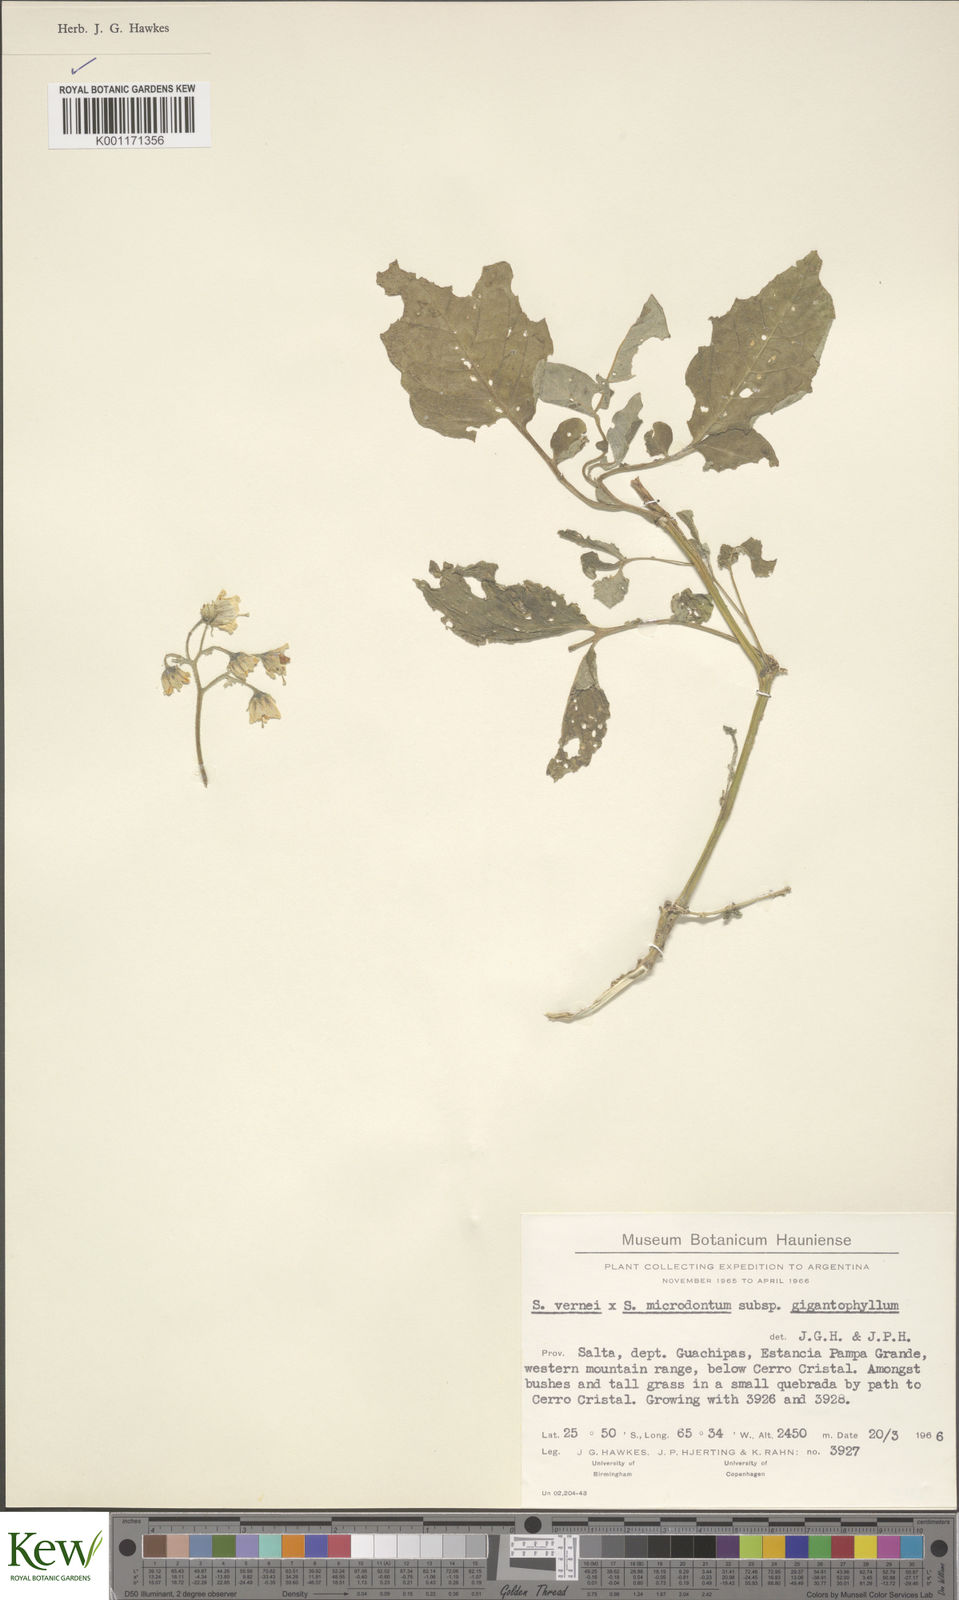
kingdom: Plantae
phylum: Tracheophyta
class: Magnoliopsida
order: Solanales
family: Solanaceae
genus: Solanum
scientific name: Solanum microdontum
